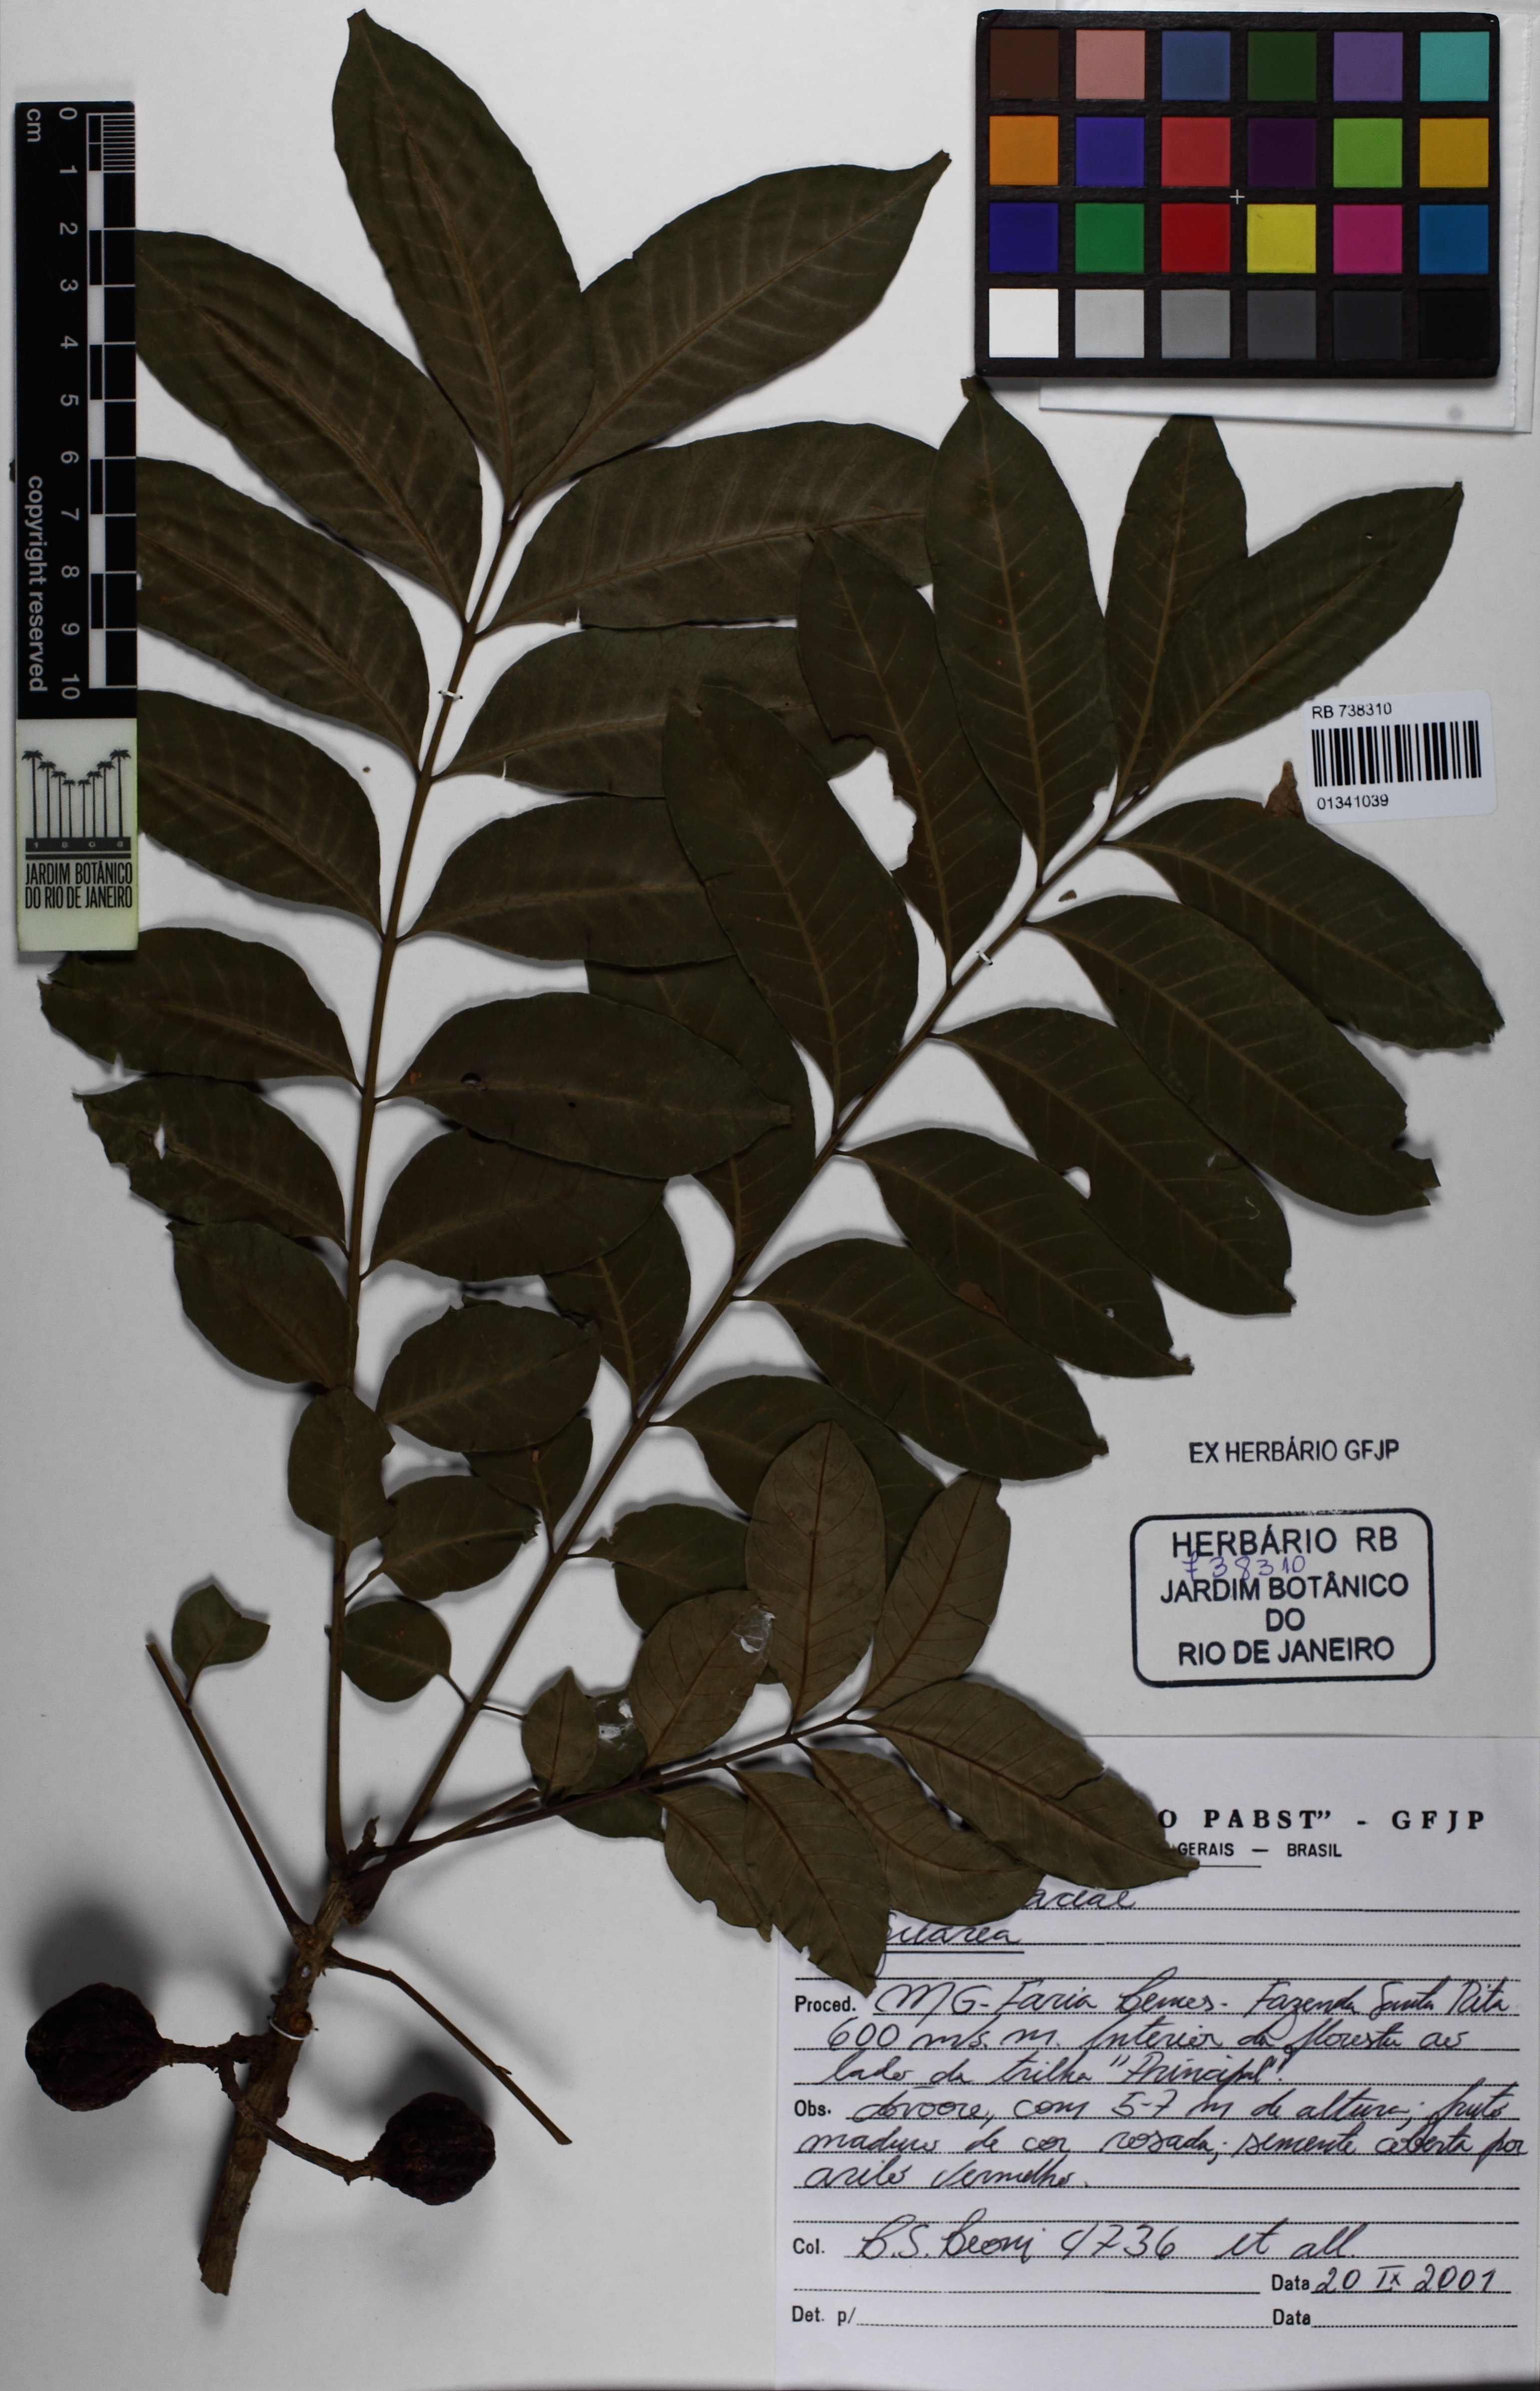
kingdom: Plantae
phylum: Tracheophyta
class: Magnoliopsida
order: Sapindales
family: Meliaceae
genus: Guarea
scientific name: Guarea
